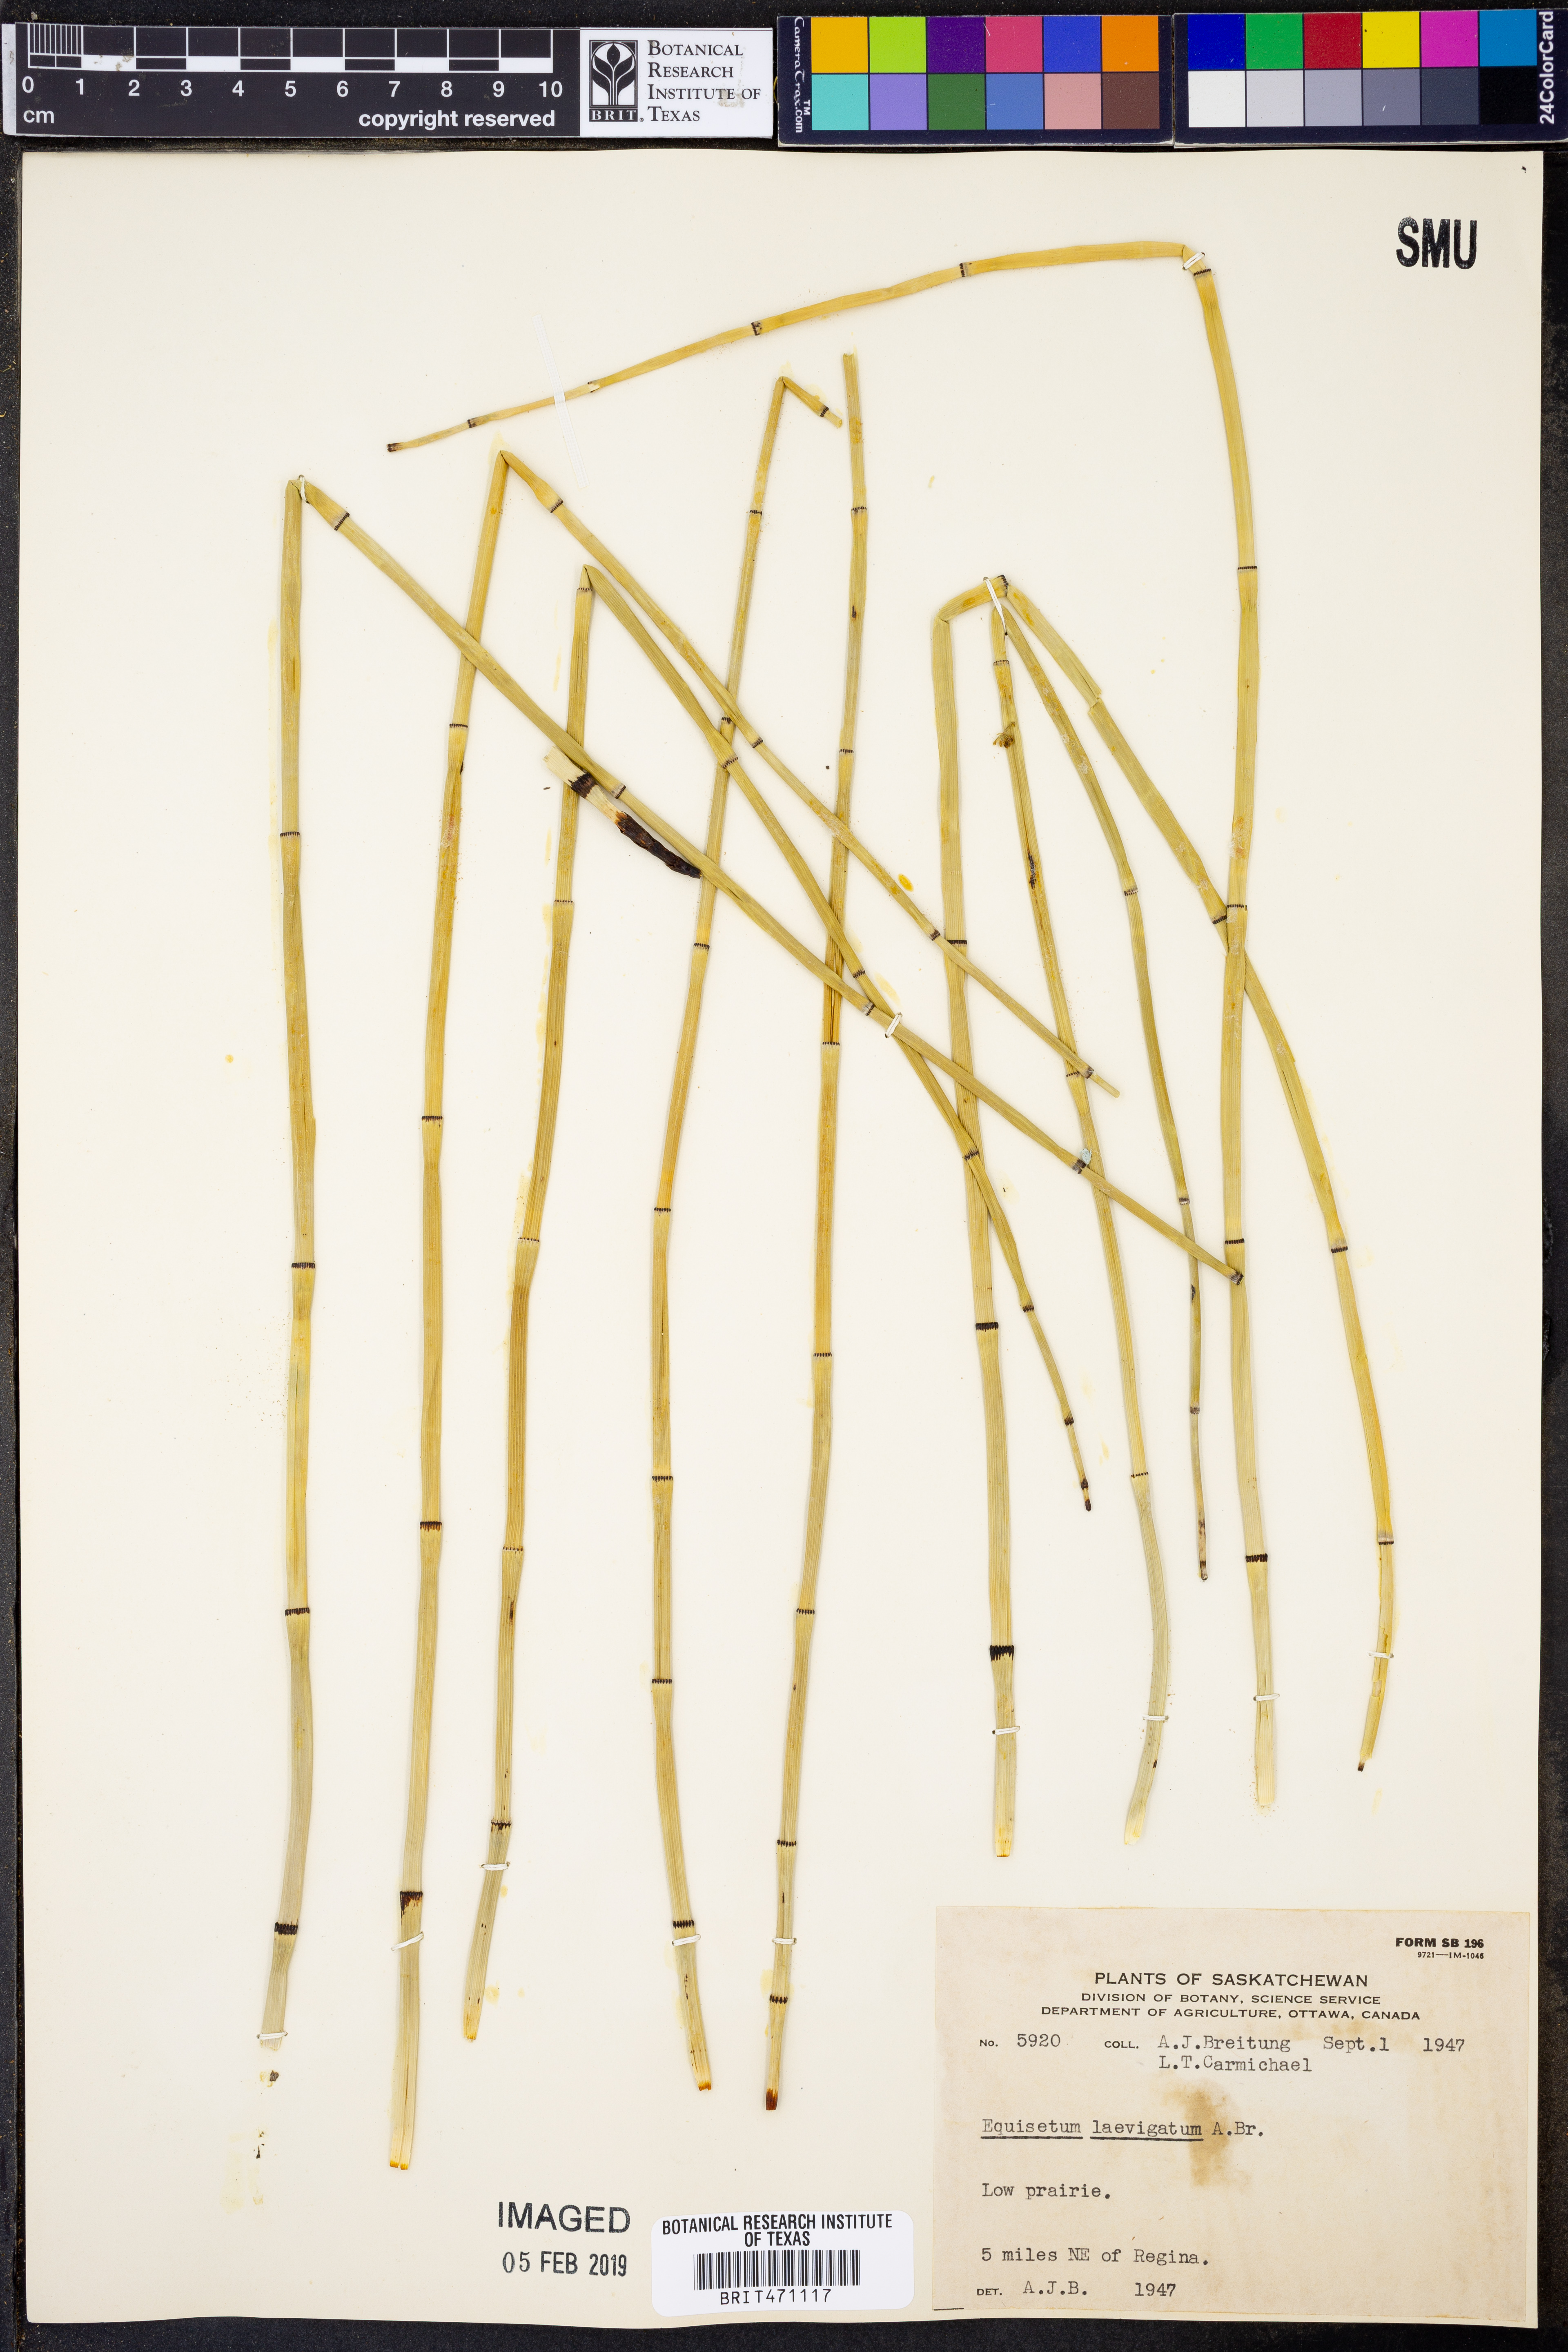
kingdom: Plantae
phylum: Tracheophyta
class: Polypodiopsida
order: Equisetales
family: Equisetaceae
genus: Equisetum
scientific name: Equisetum laevigatum
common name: Smooth scouring-rush
